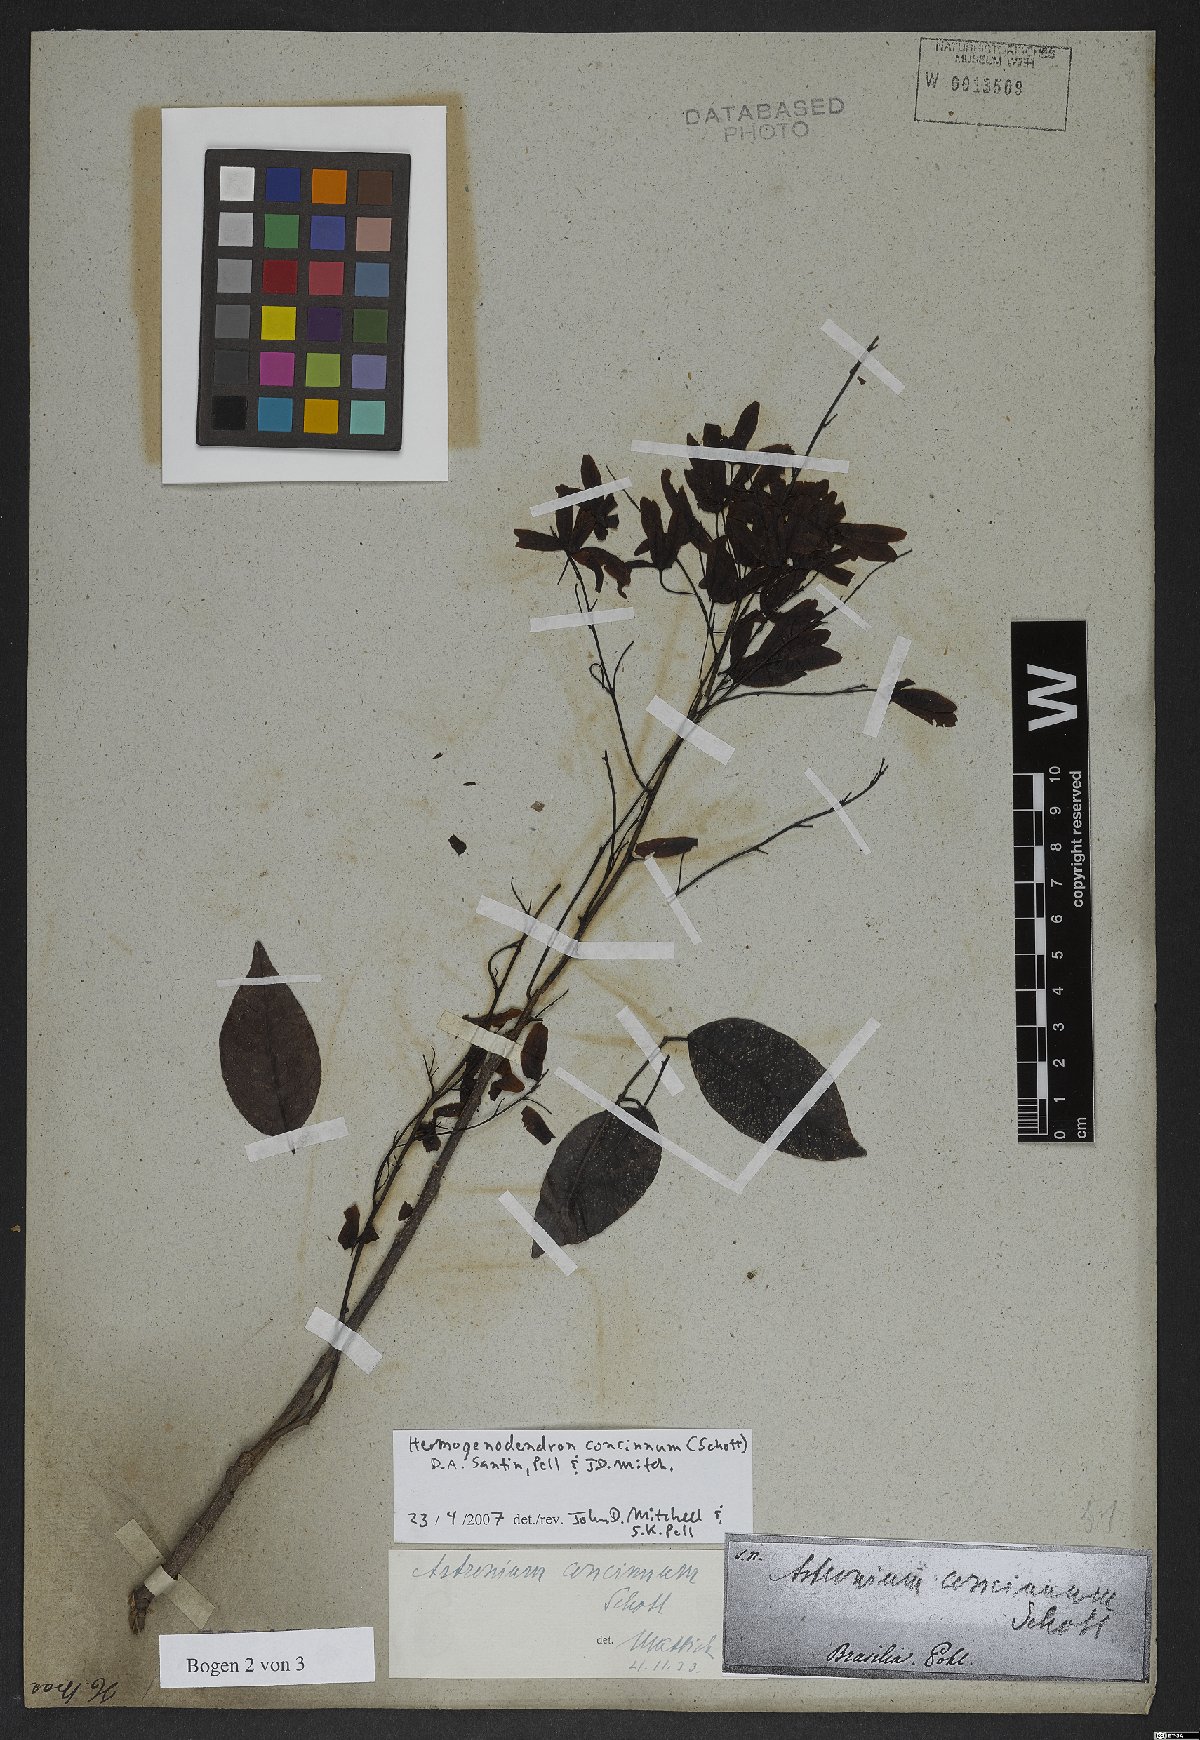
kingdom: Plantae
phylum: Tracheophyta
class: Magnoliopsida
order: Sapindales
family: Anacardiaceae
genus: Astronium
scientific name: Astronium concinnum
